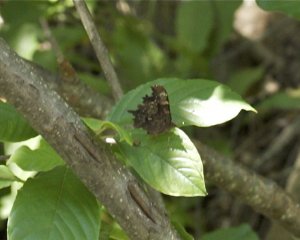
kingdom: Animalia
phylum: Arthropoda
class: Insecta
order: Lepidoptera
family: Nymphalidae
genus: Polygonia
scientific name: Polygonia faunus
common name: Green Comma
